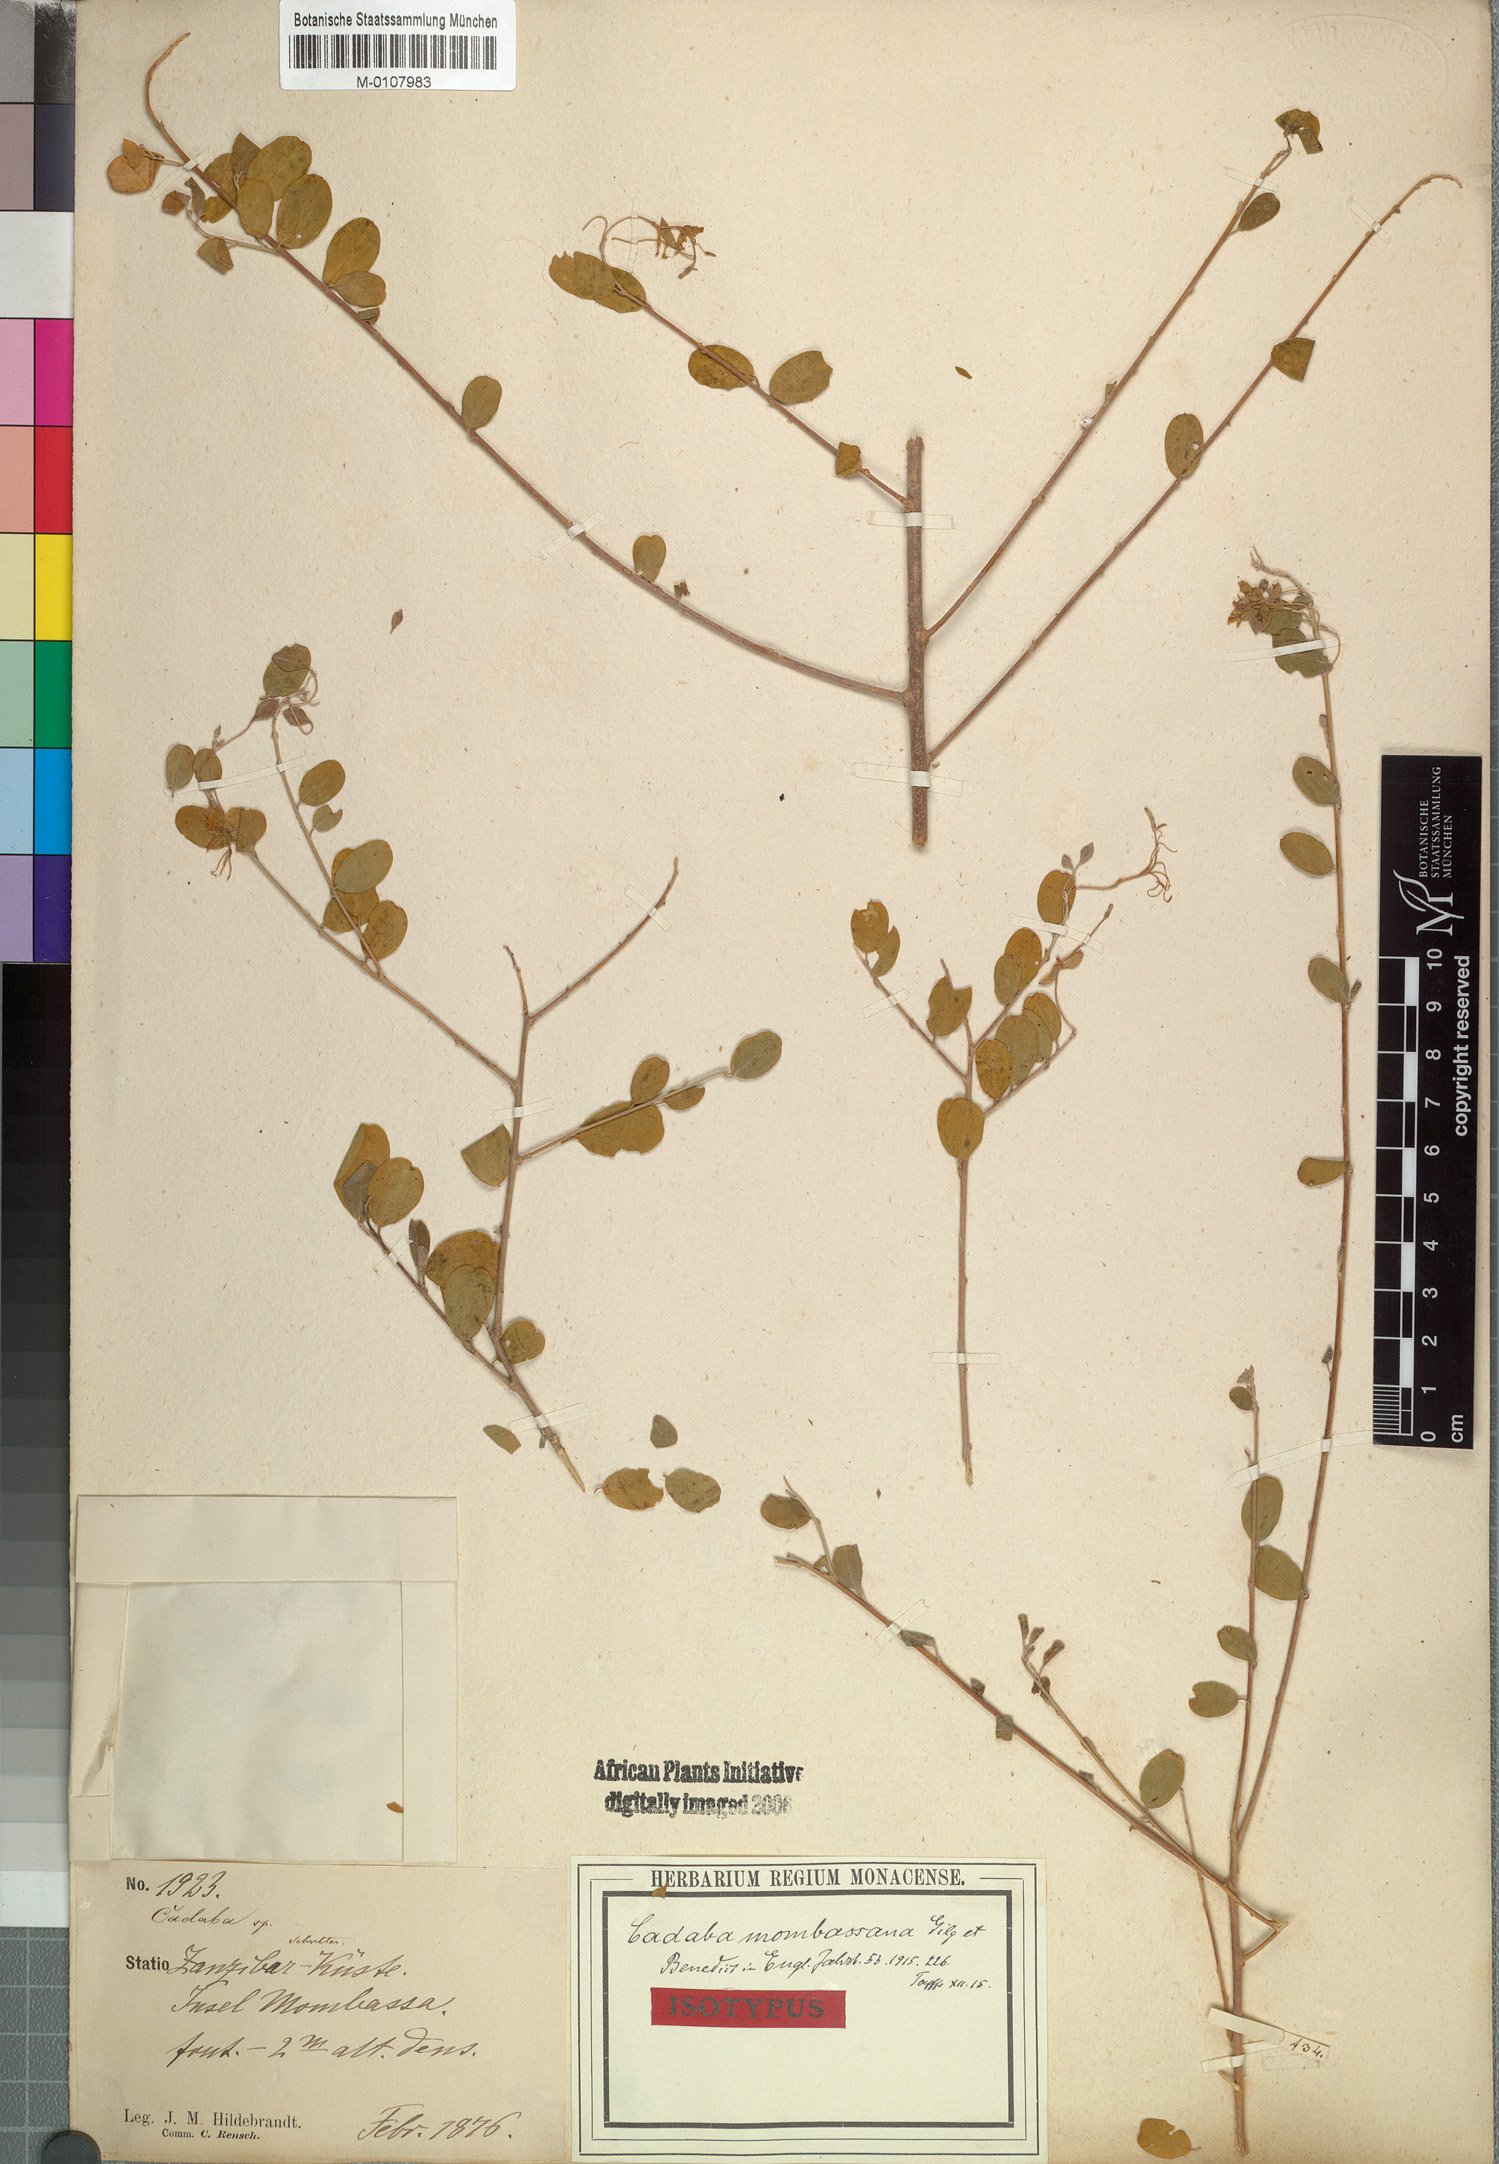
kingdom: Plantae
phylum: Tracheophyta
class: Magnoliopsida
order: Brassicales
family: Capparaceae
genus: Cadaba
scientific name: Cadaba farinosa
